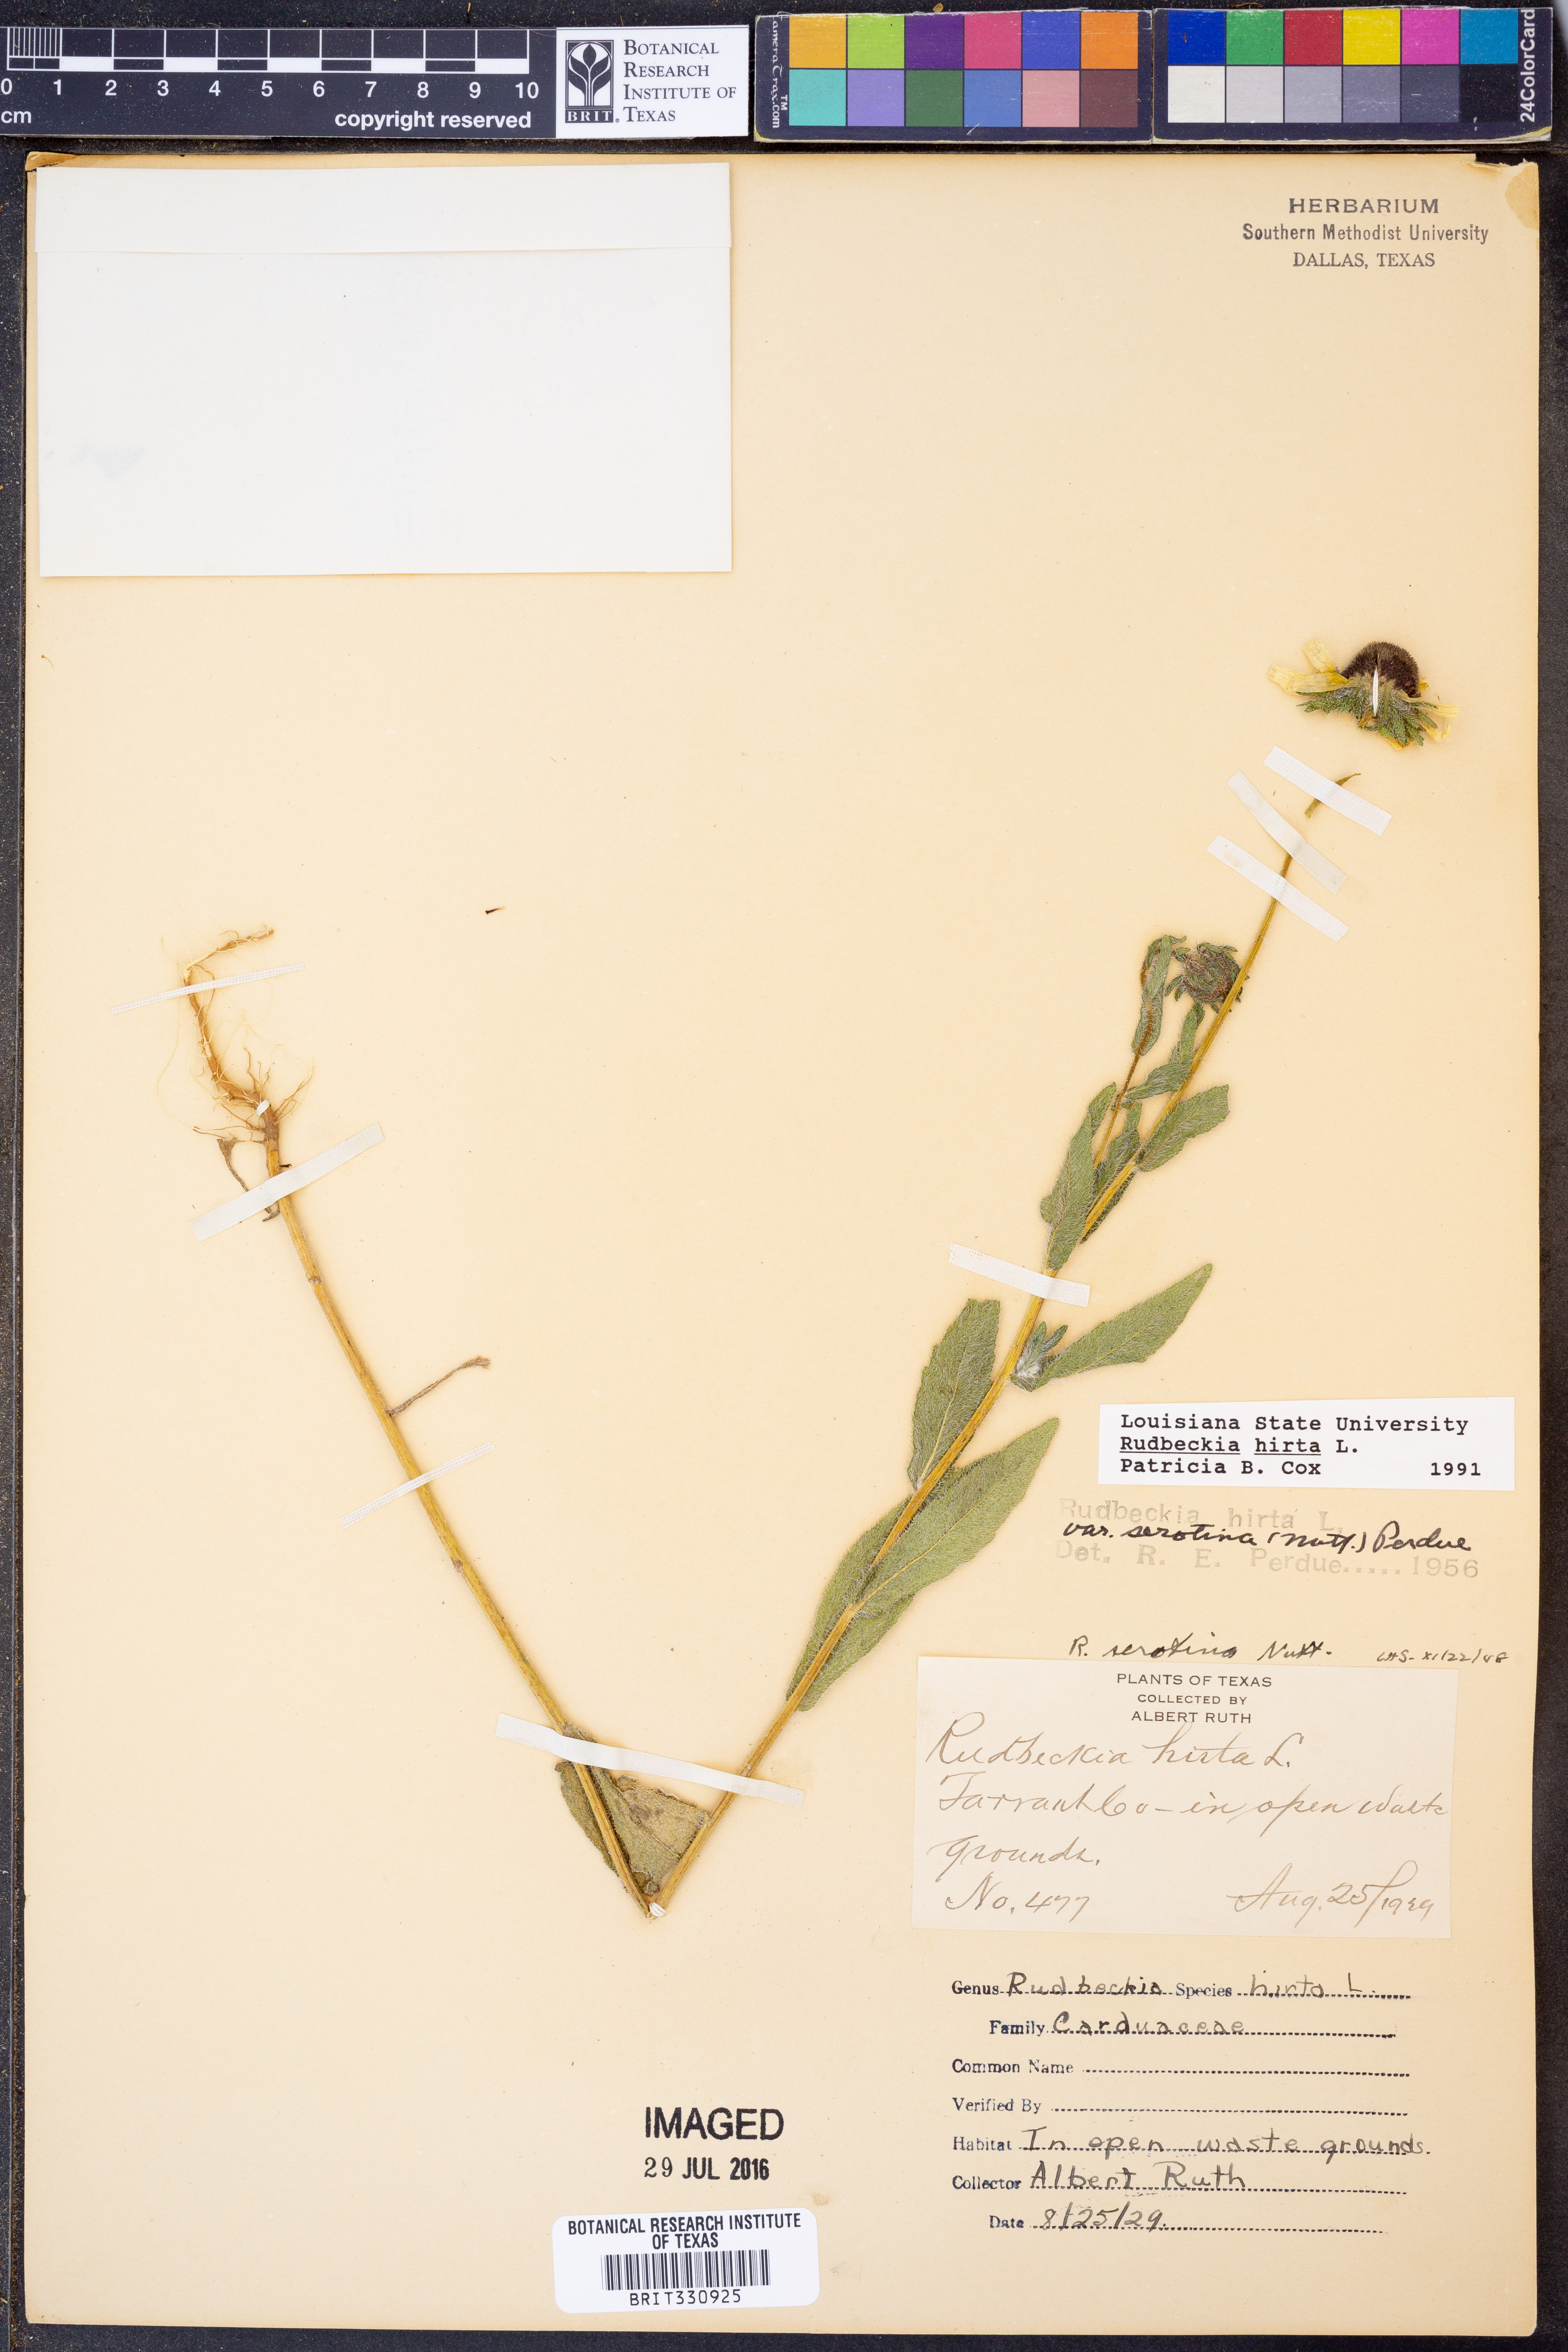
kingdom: Plantae
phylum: Tracheophyta
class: Magnoliopsida
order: Asterales
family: Asteraceae
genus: Rudbeckia
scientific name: Rudbeckia hirta
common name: Black-eyed-susan
